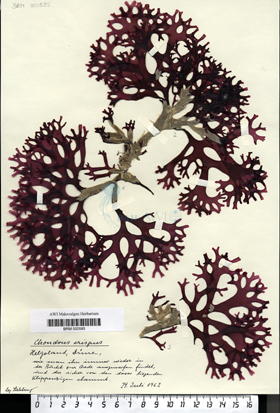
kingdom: Plantae
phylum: Rhodophyta
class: Florideophyceae
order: Gigartinales
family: Gigartinaceae
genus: Chondrus
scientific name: Chondrus crispus
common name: Carrageen
